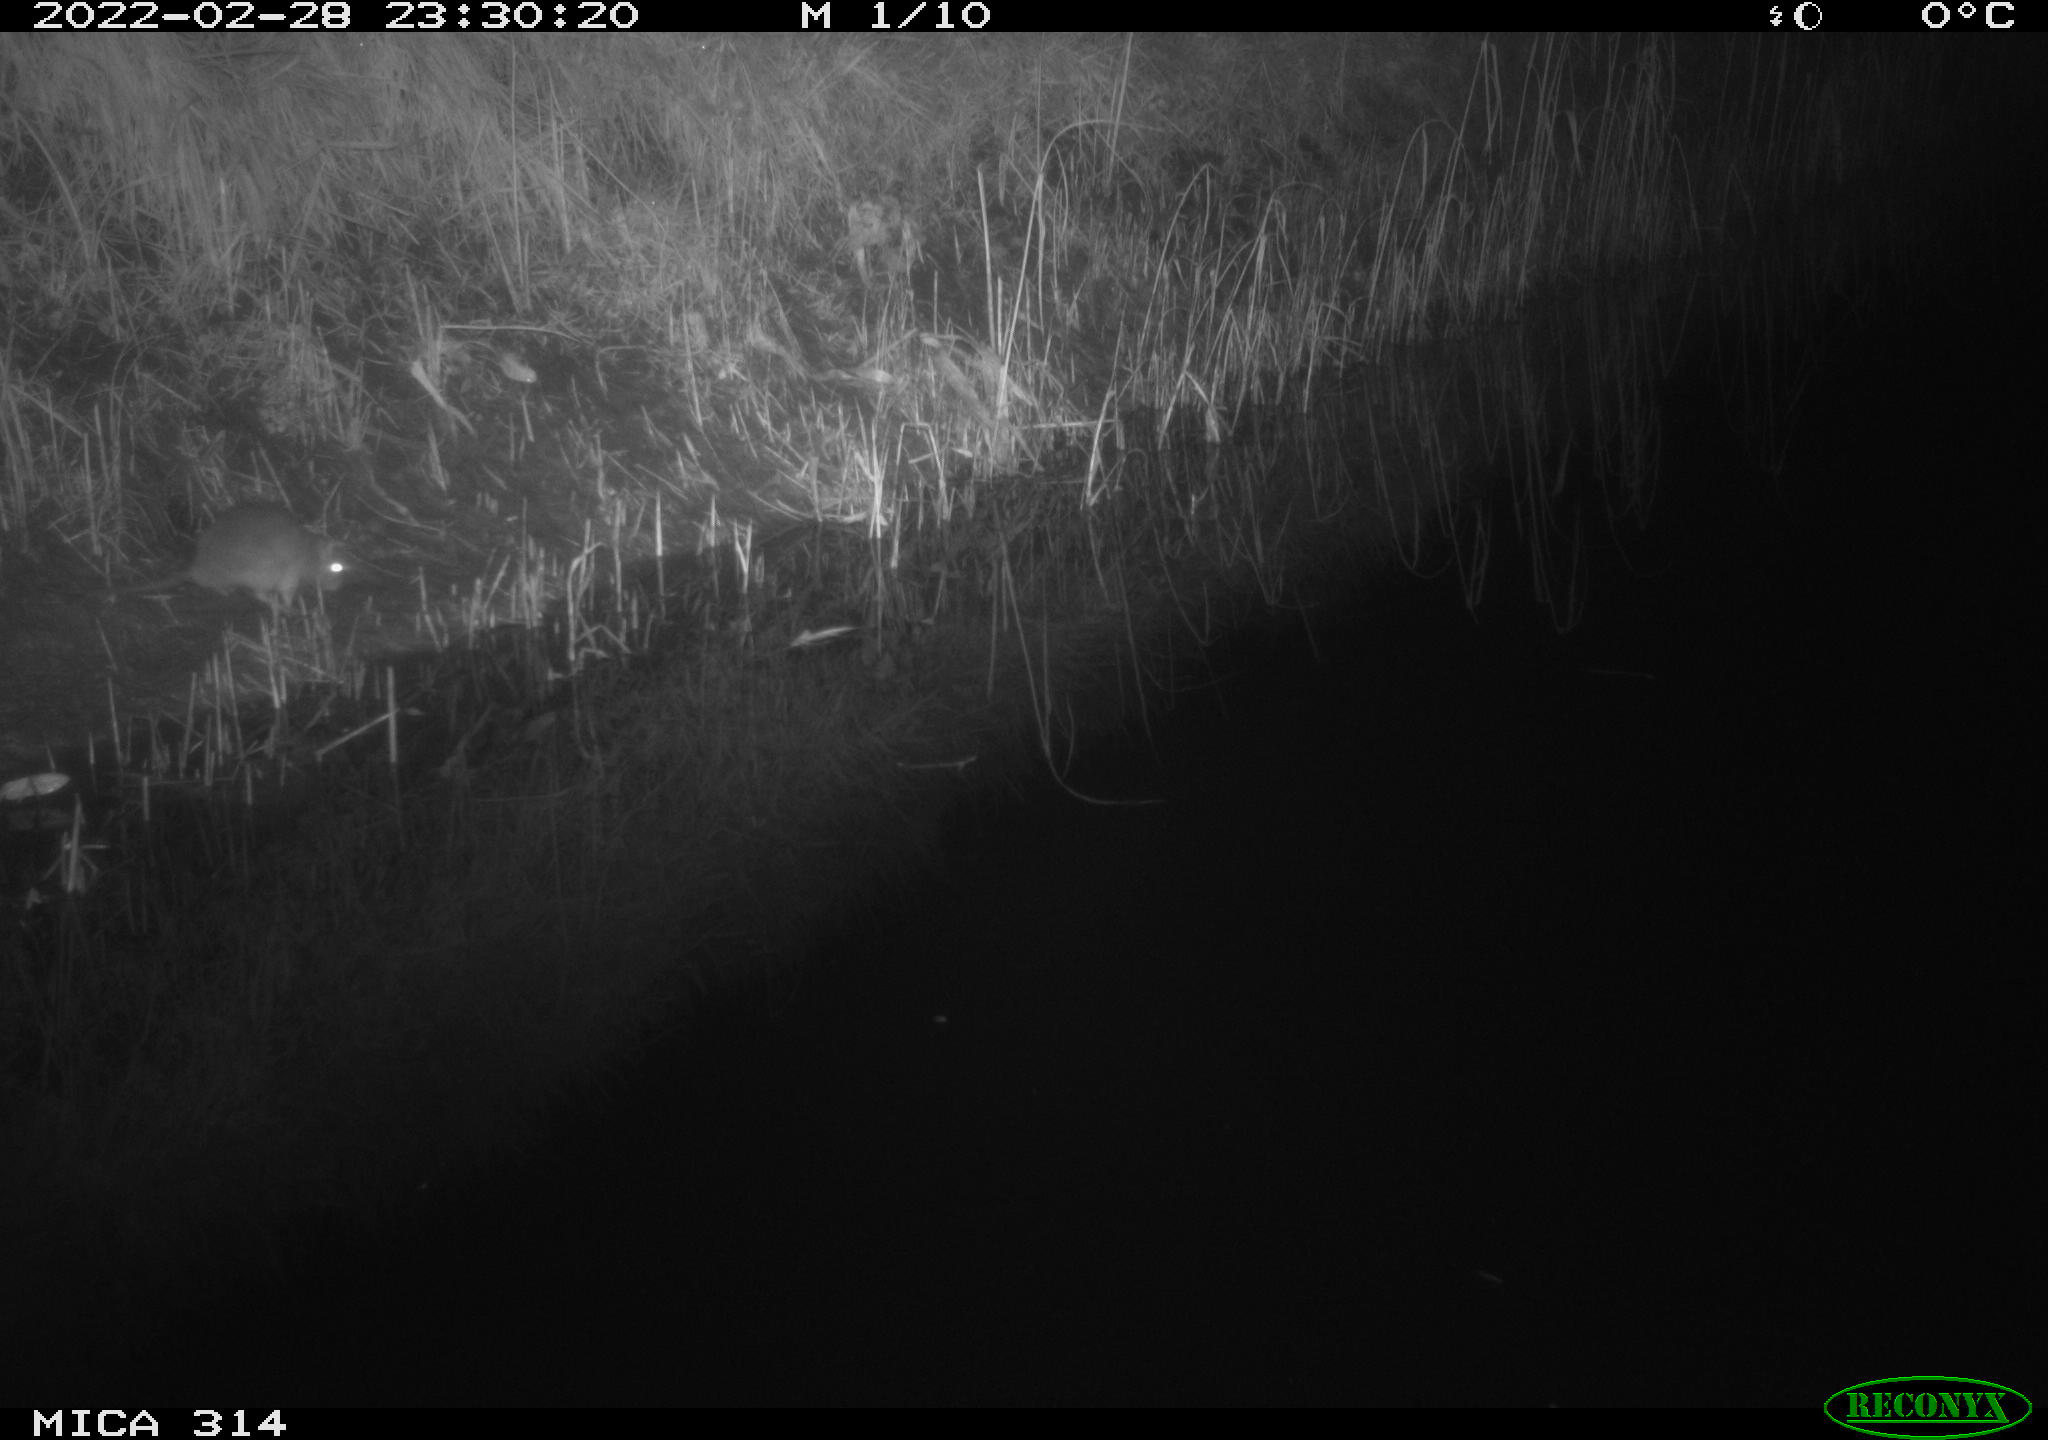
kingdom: Animalia
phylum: Chordata
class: Mammalia
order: Rodentia
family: Muridae
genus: Rattus
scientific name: Rattus norvegicus
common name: Brown rat
